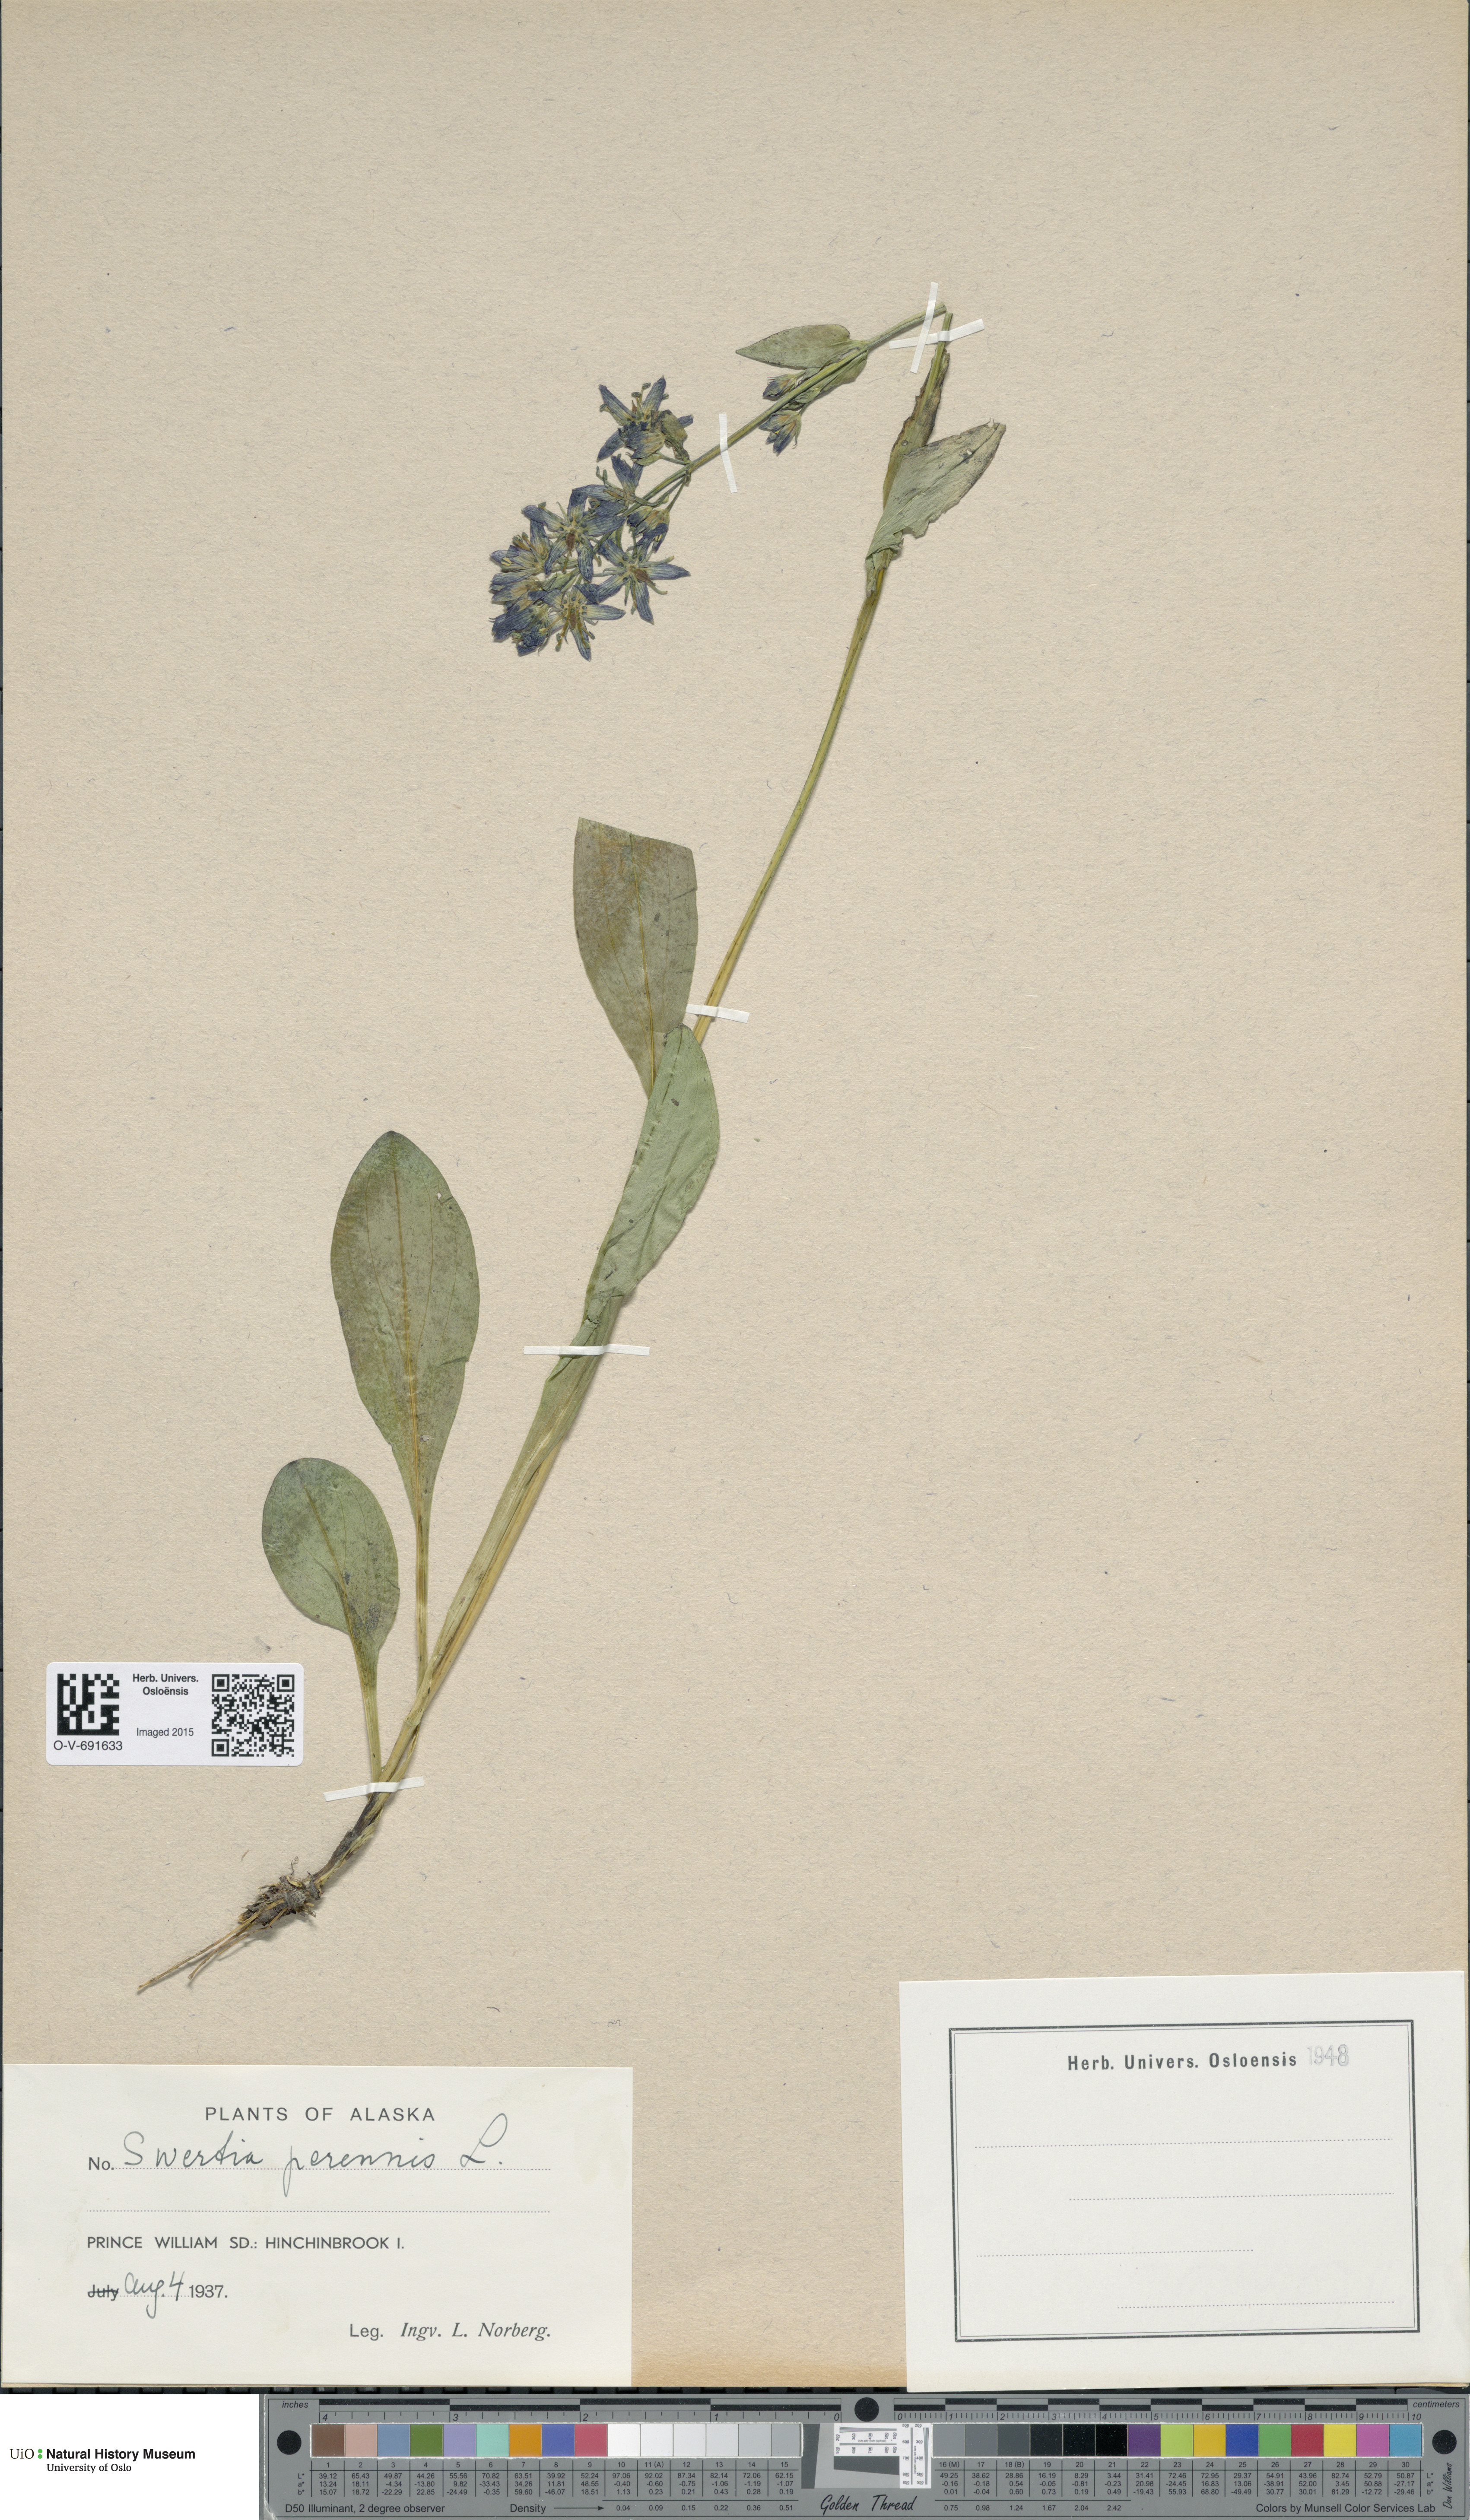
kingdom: Plantae
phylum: Tracheophyta
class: Magnoliopsida
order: Gentianales
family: Gentianaceae
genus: Swertia
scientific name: Swertia perennis
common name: Alpine bog swertia
